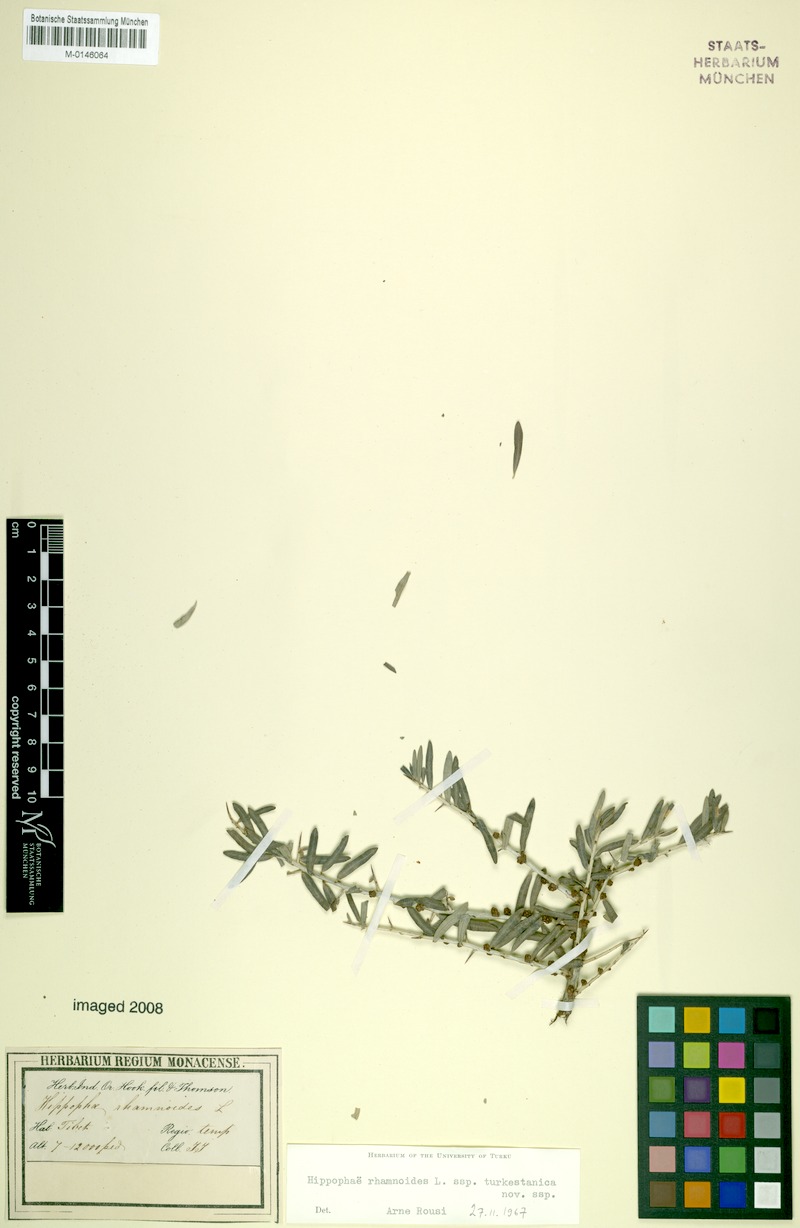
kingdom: Plantae
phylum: Tracheophyta
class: Magnoliopsida
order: Rosales
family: Elaeagnaceae
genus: Hippophae
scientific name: Hippophae rhamnoides
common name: Sea-buckthorn
